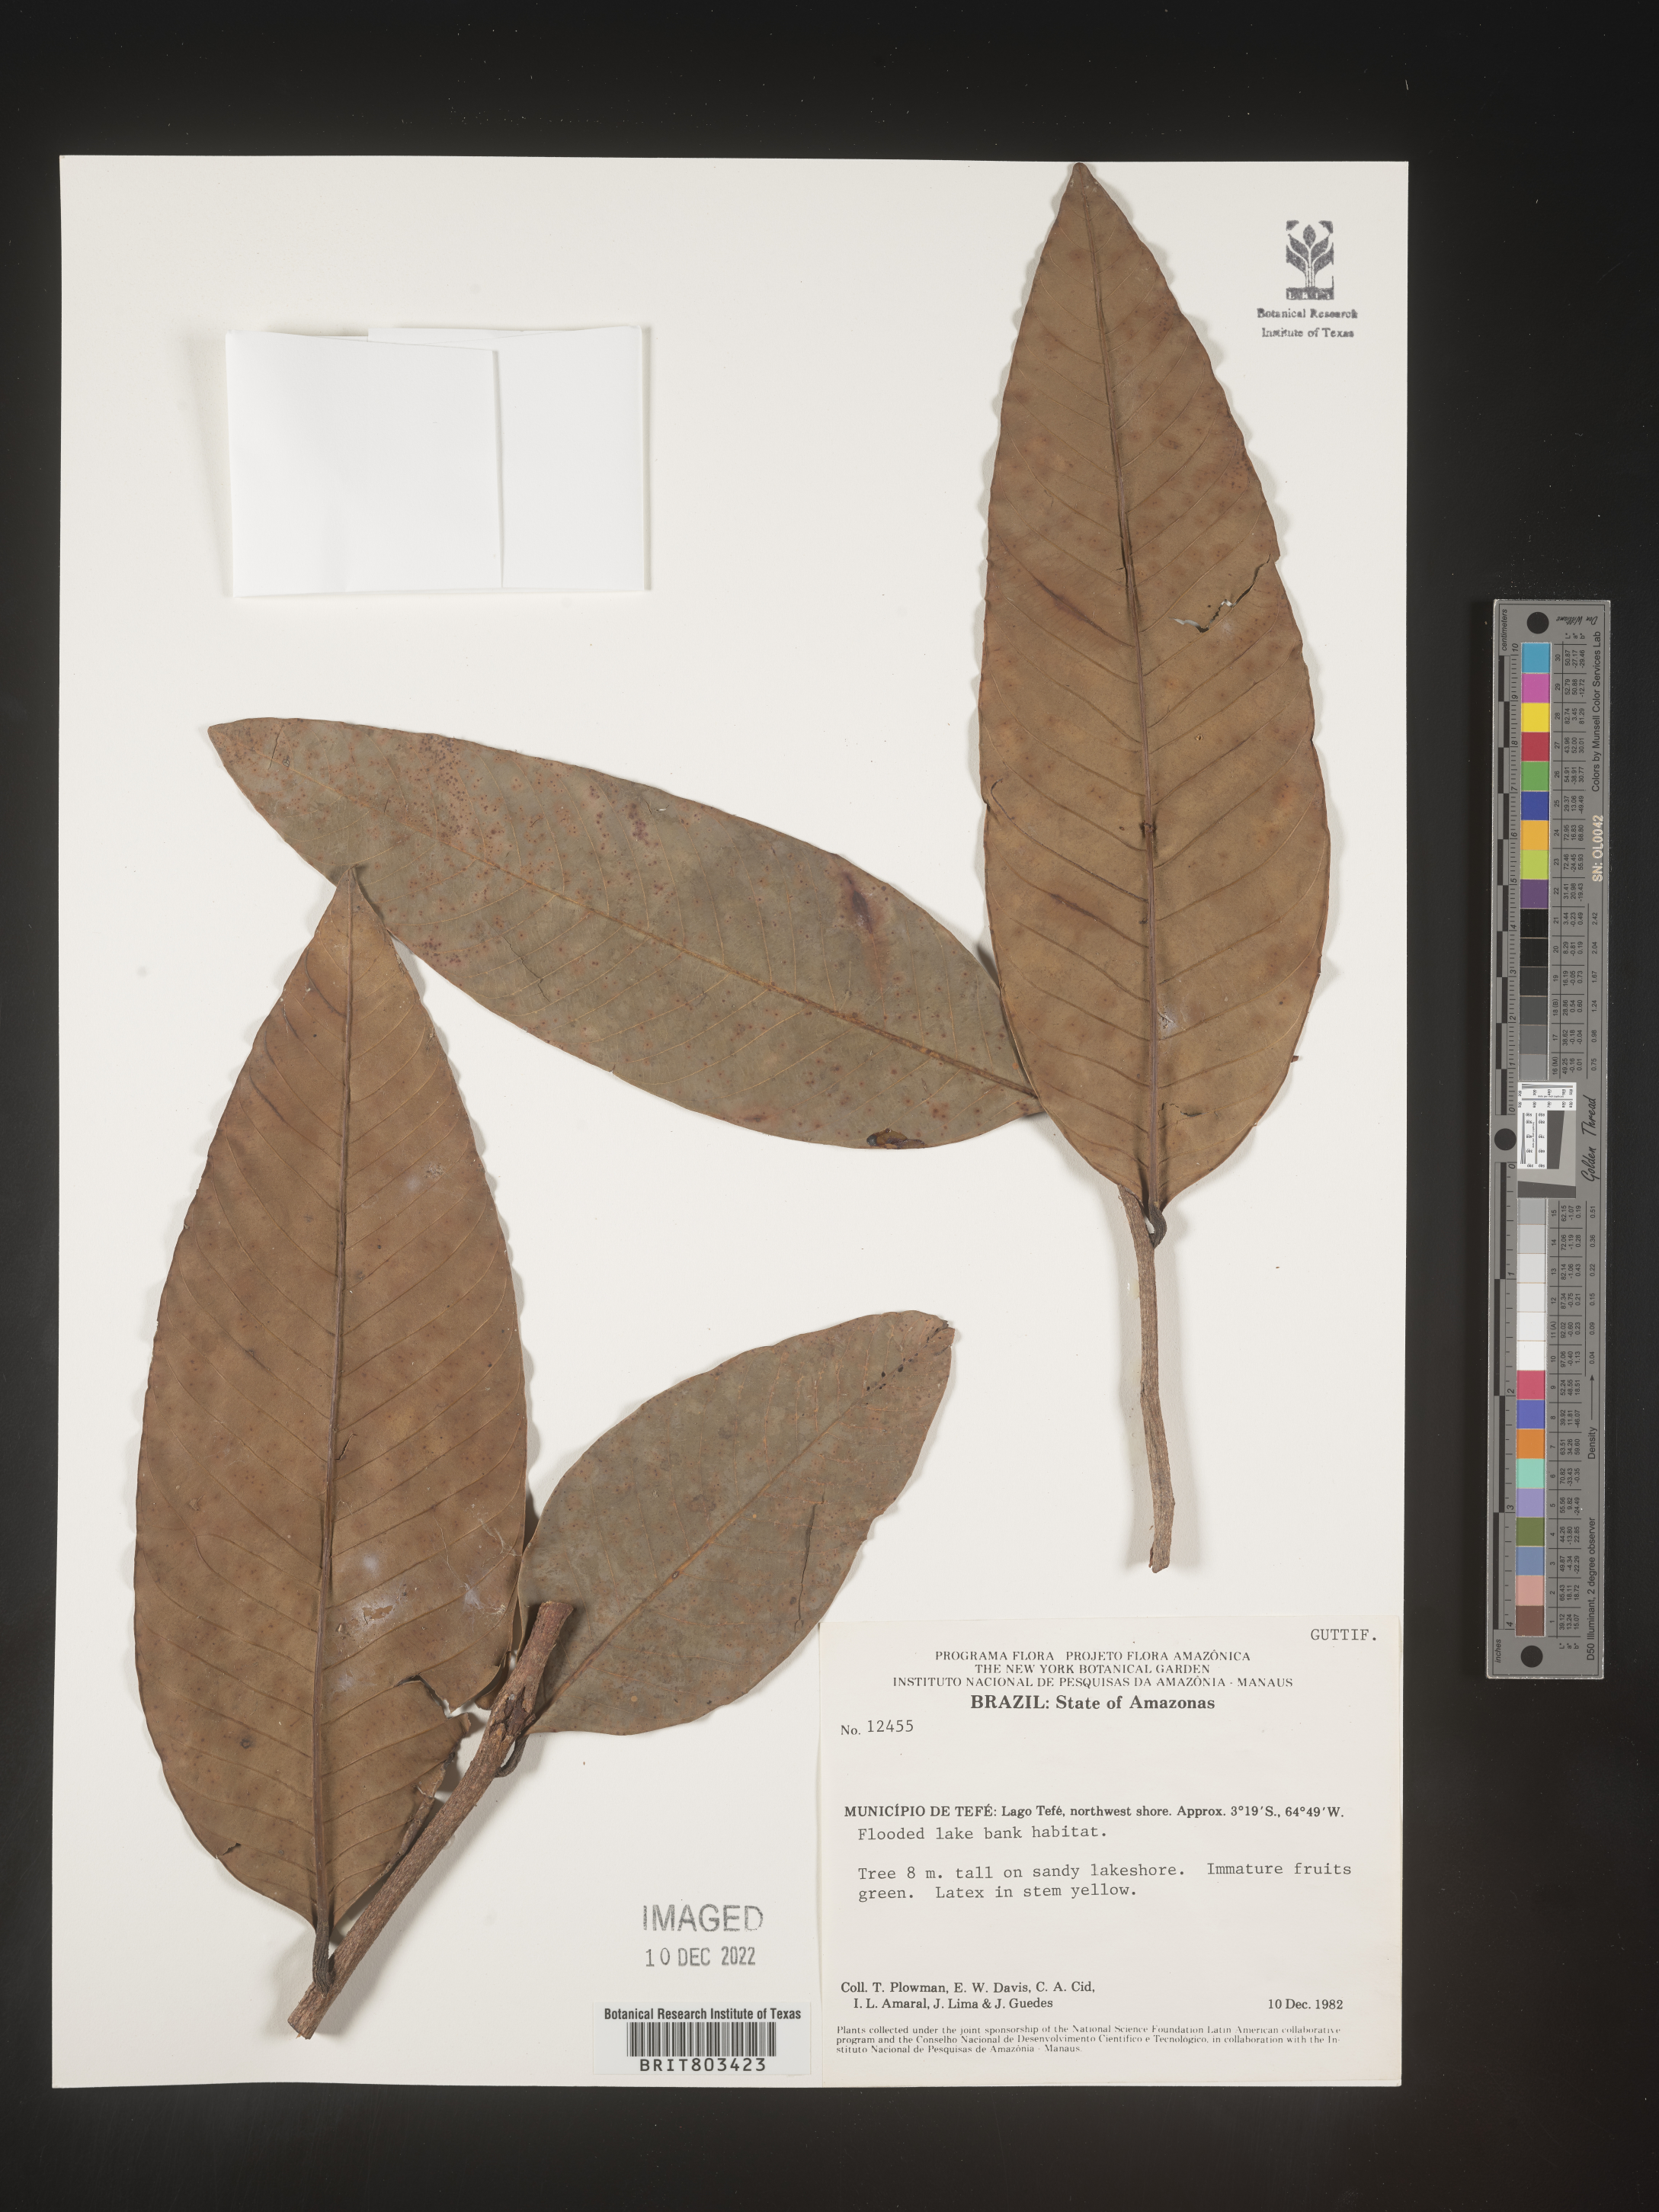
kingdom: Plantae
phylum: Tracheophyta
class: Magnoliopsida
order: Malpighiales
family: Clusiaceae
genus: Tovomita
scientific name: Tovomita
